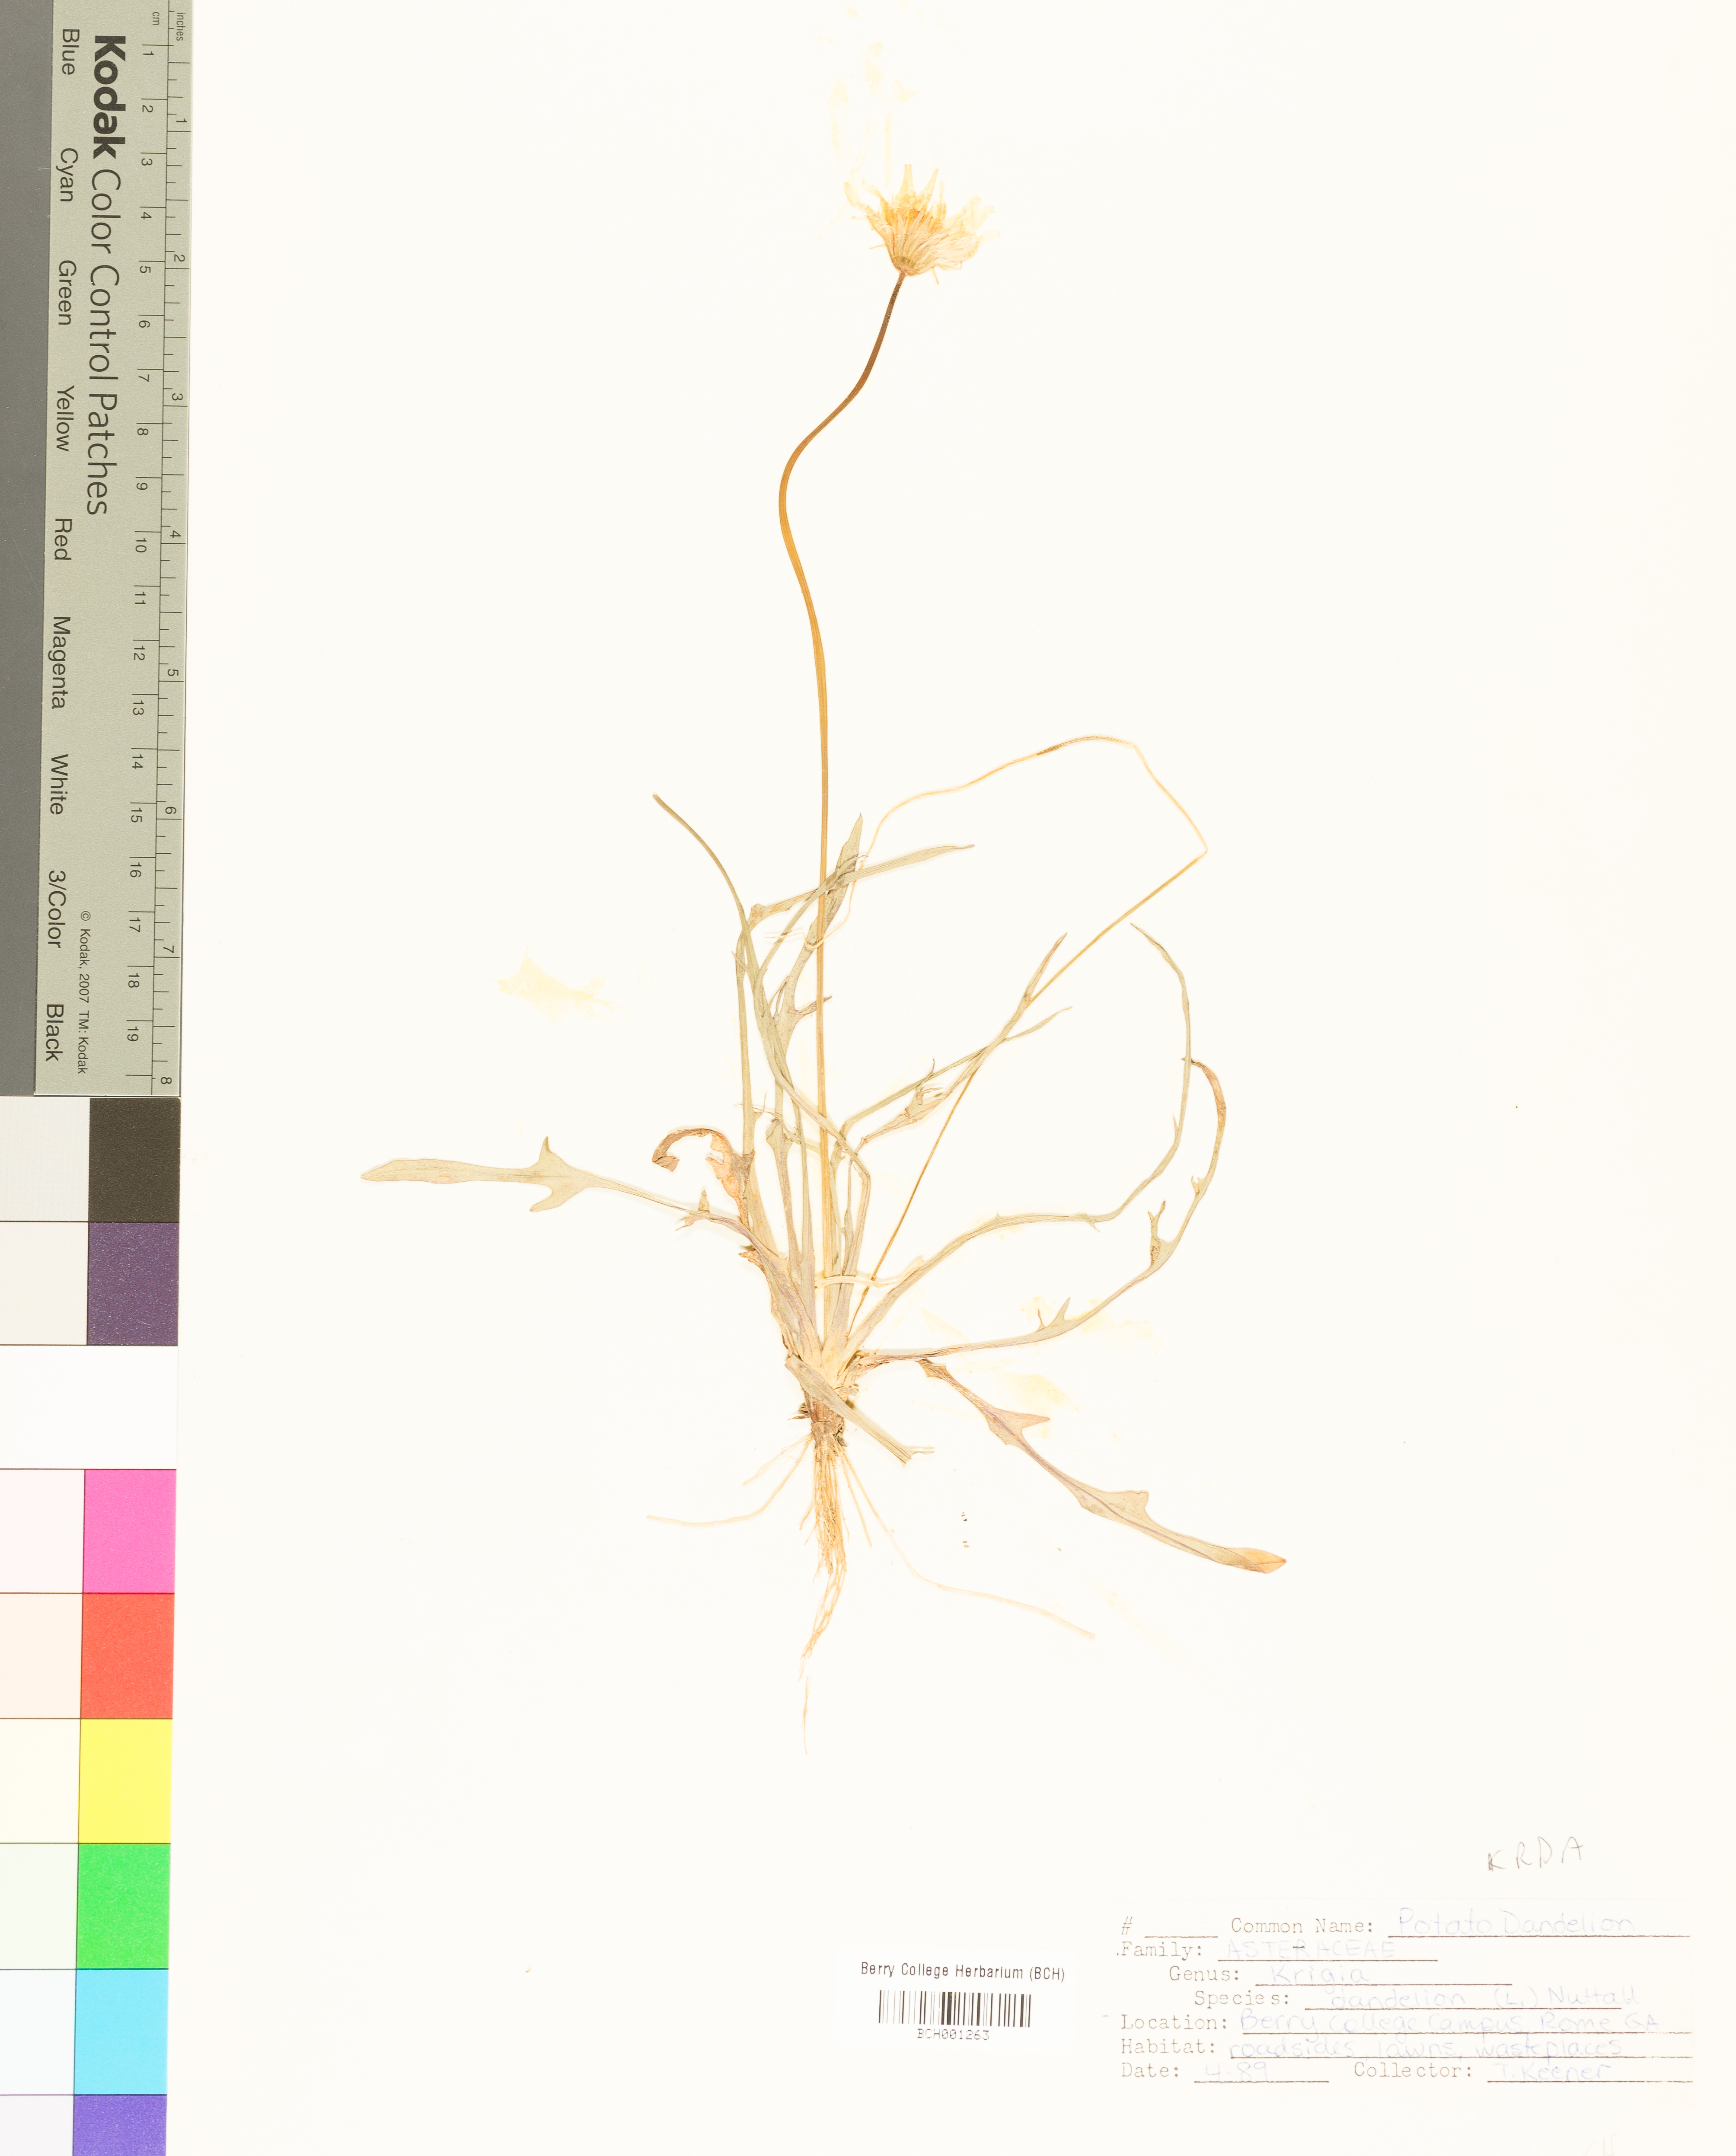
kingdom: Plantae
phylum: Tracheophyta
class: Magnoliopsida
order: Asterales
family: Asteraceae
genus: Krigia
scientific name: Krigia dandelion
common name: Colonial dwarf-dandelion
